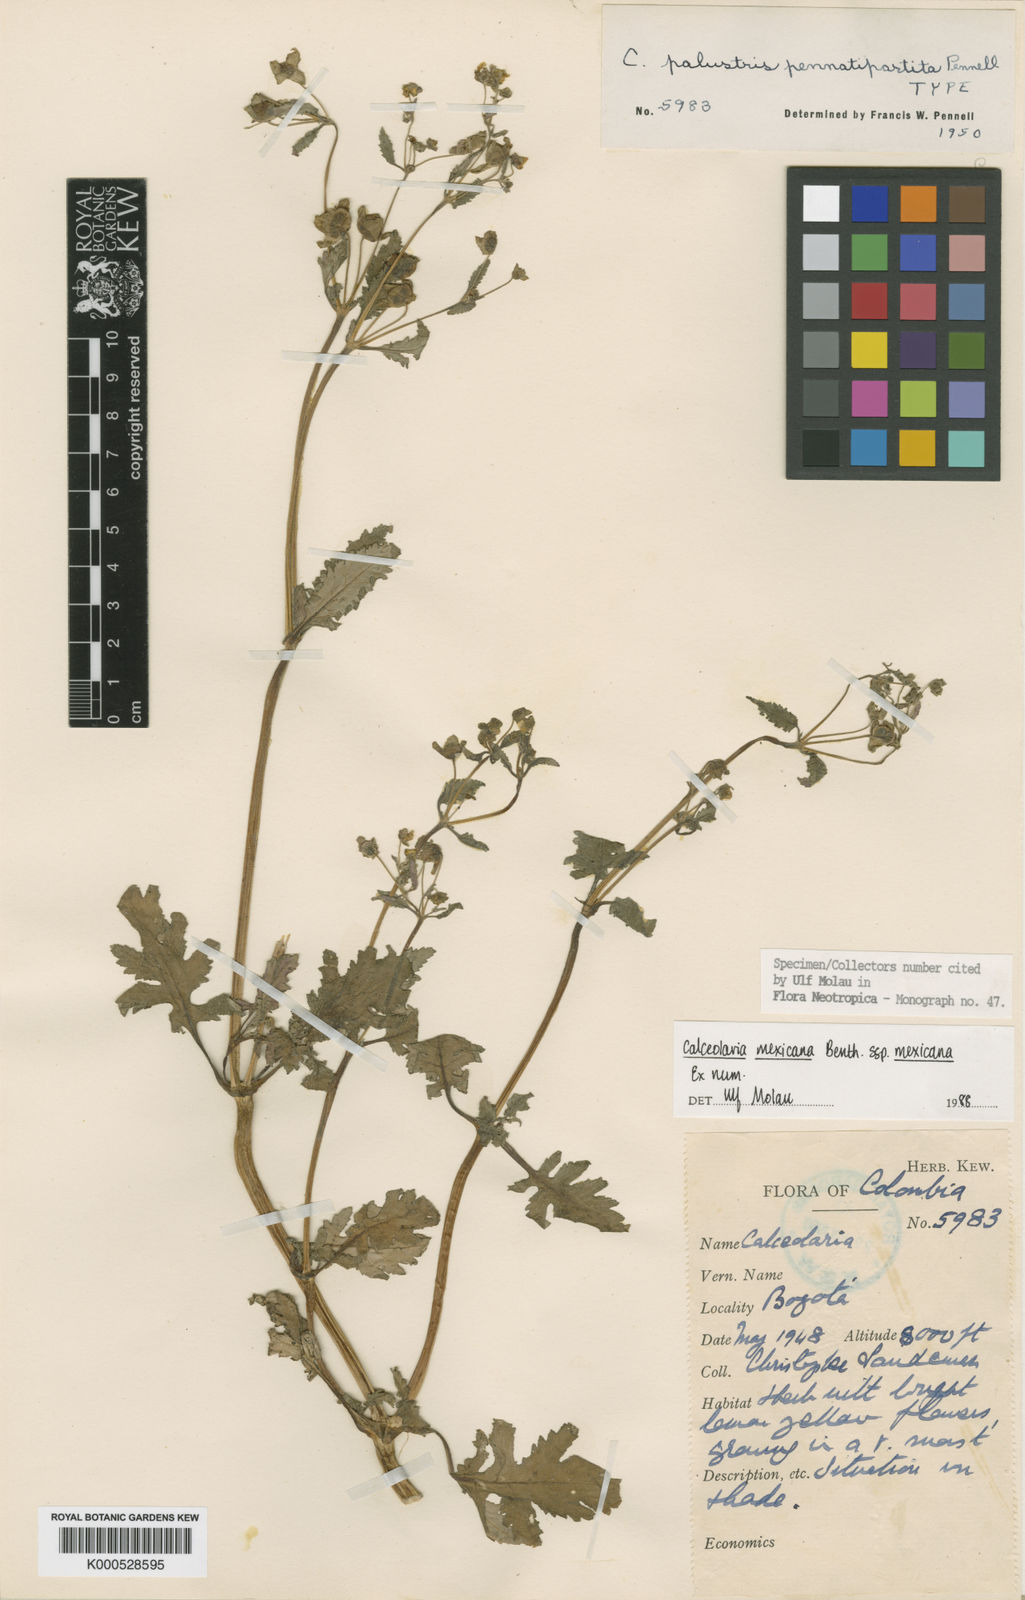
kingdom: Plantae
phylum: Tracheophyta
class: Magnoliopsida
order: Lamiales
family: Calceolariaceae
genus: Calceolaria
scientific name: Calceolaria mexicana
